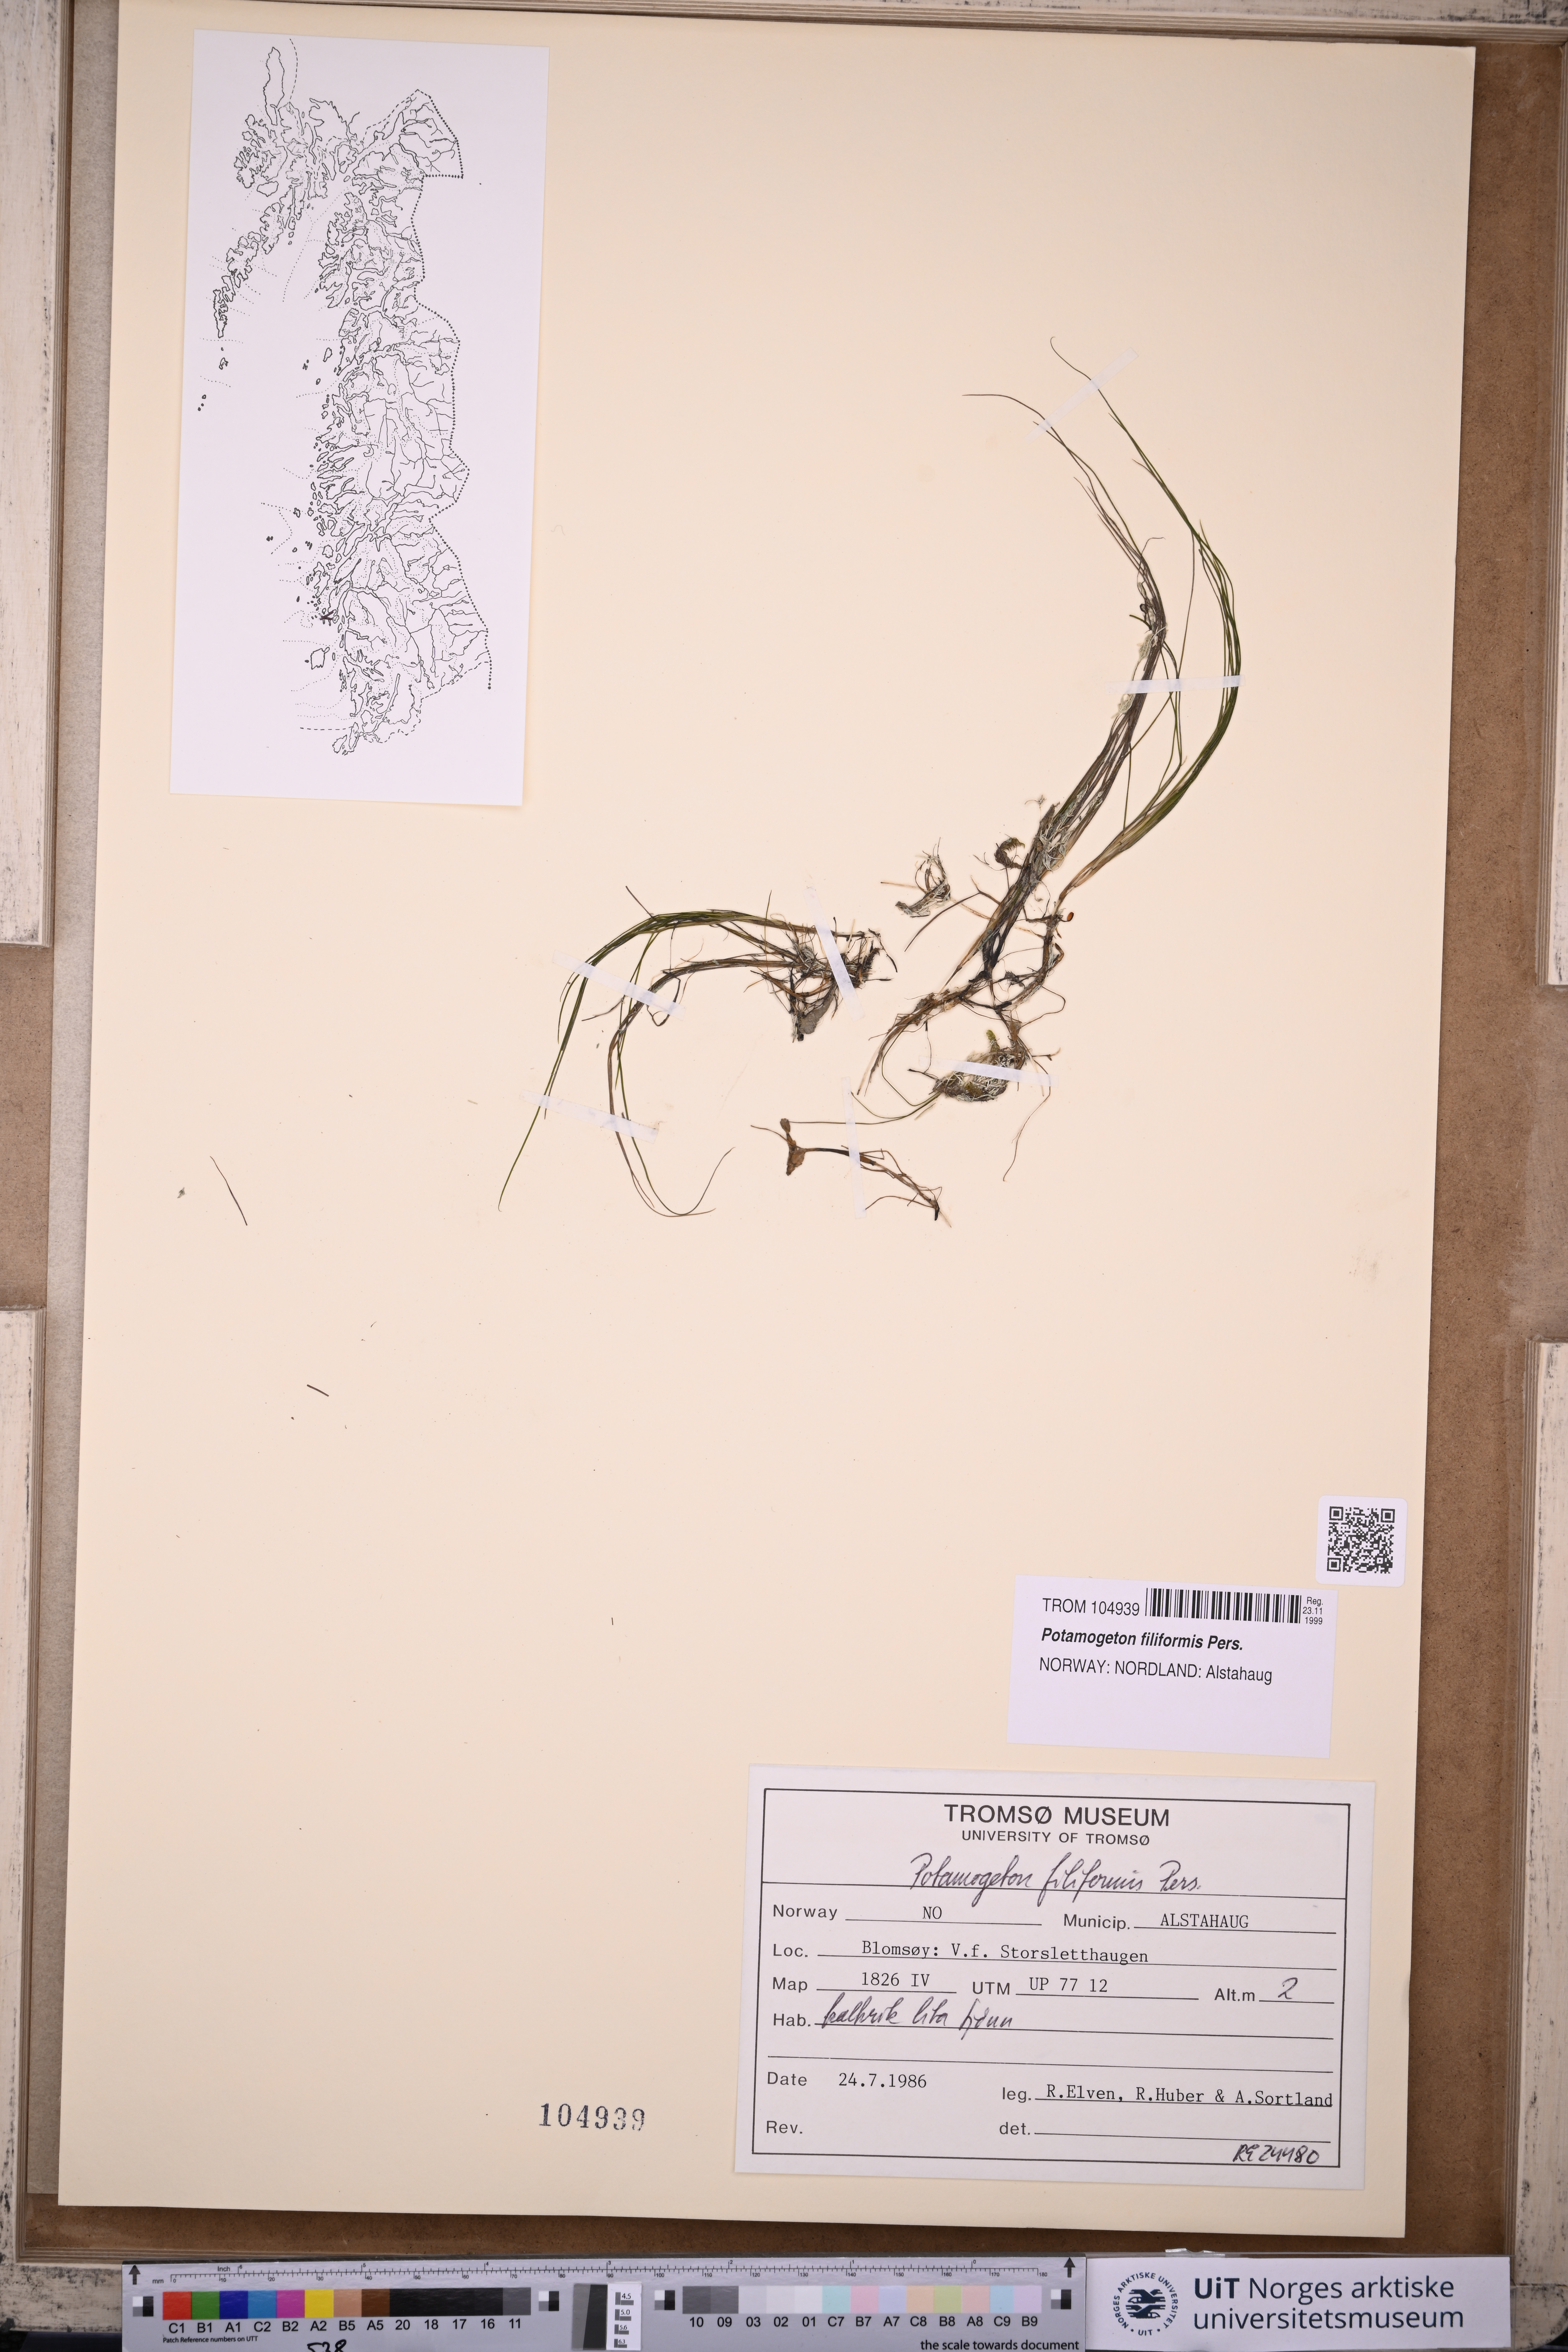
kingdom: Plantae
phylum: Tracheophyta
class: Liliopsida
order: Alismatales
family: Potamogetonaceae
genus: Stuckenia
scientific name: Stuckenia filiformis
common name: Alpine thread-leaved pondweed
